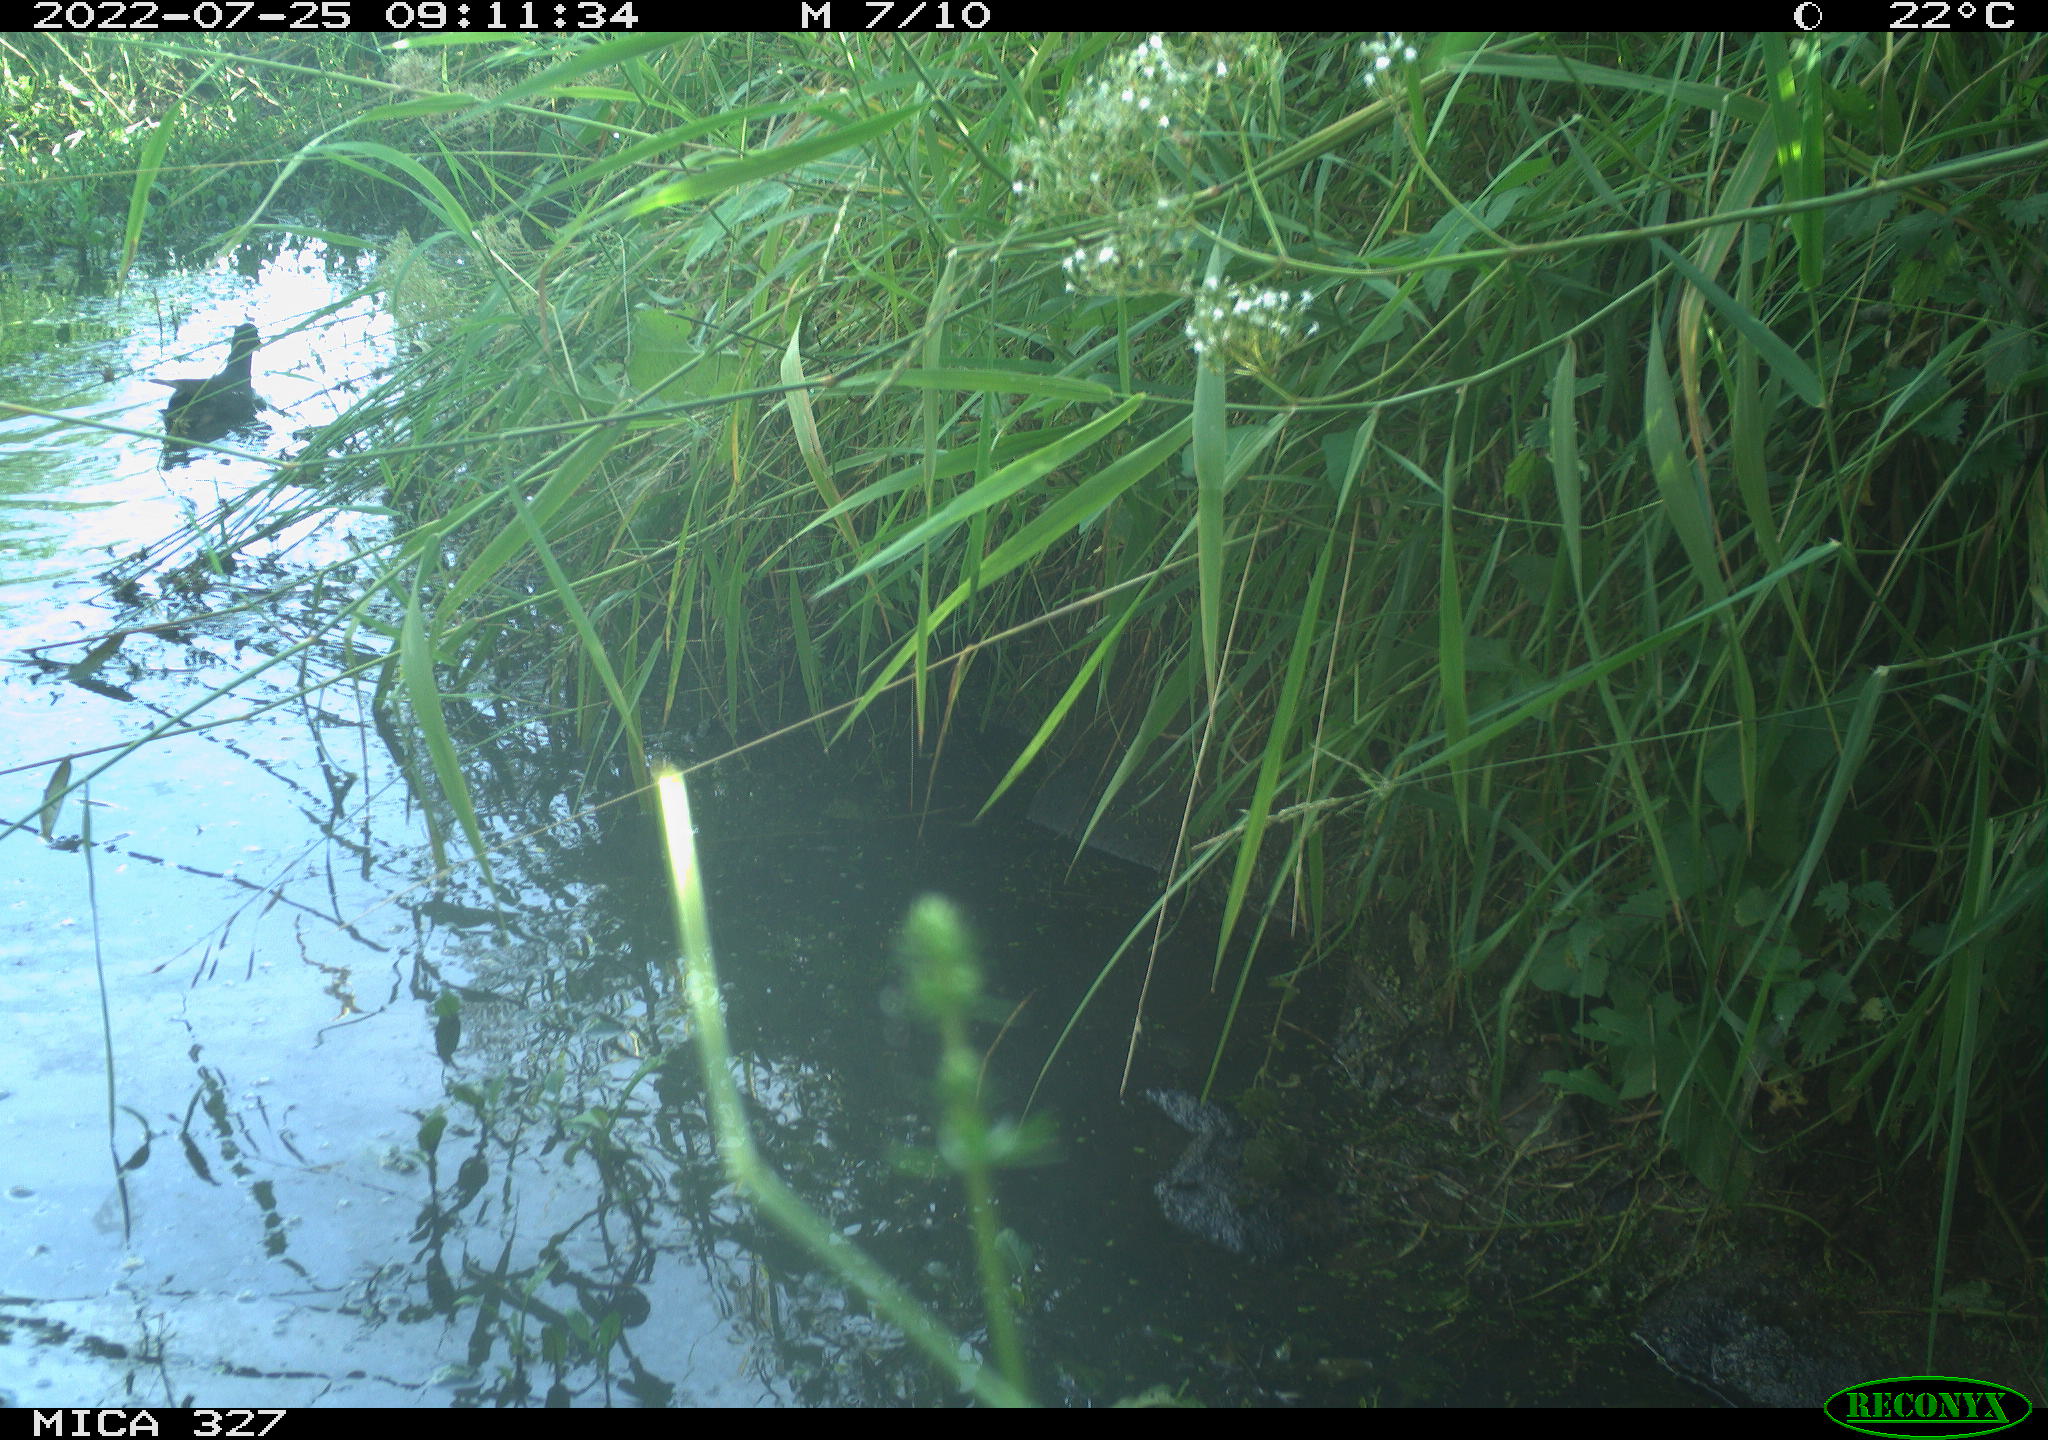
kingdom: Animalia
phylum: Chordata
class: Aves
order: Gruiformes
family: Rallidae
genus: Gallinula
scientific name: Gallinula chloropus
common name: Common moorhen
